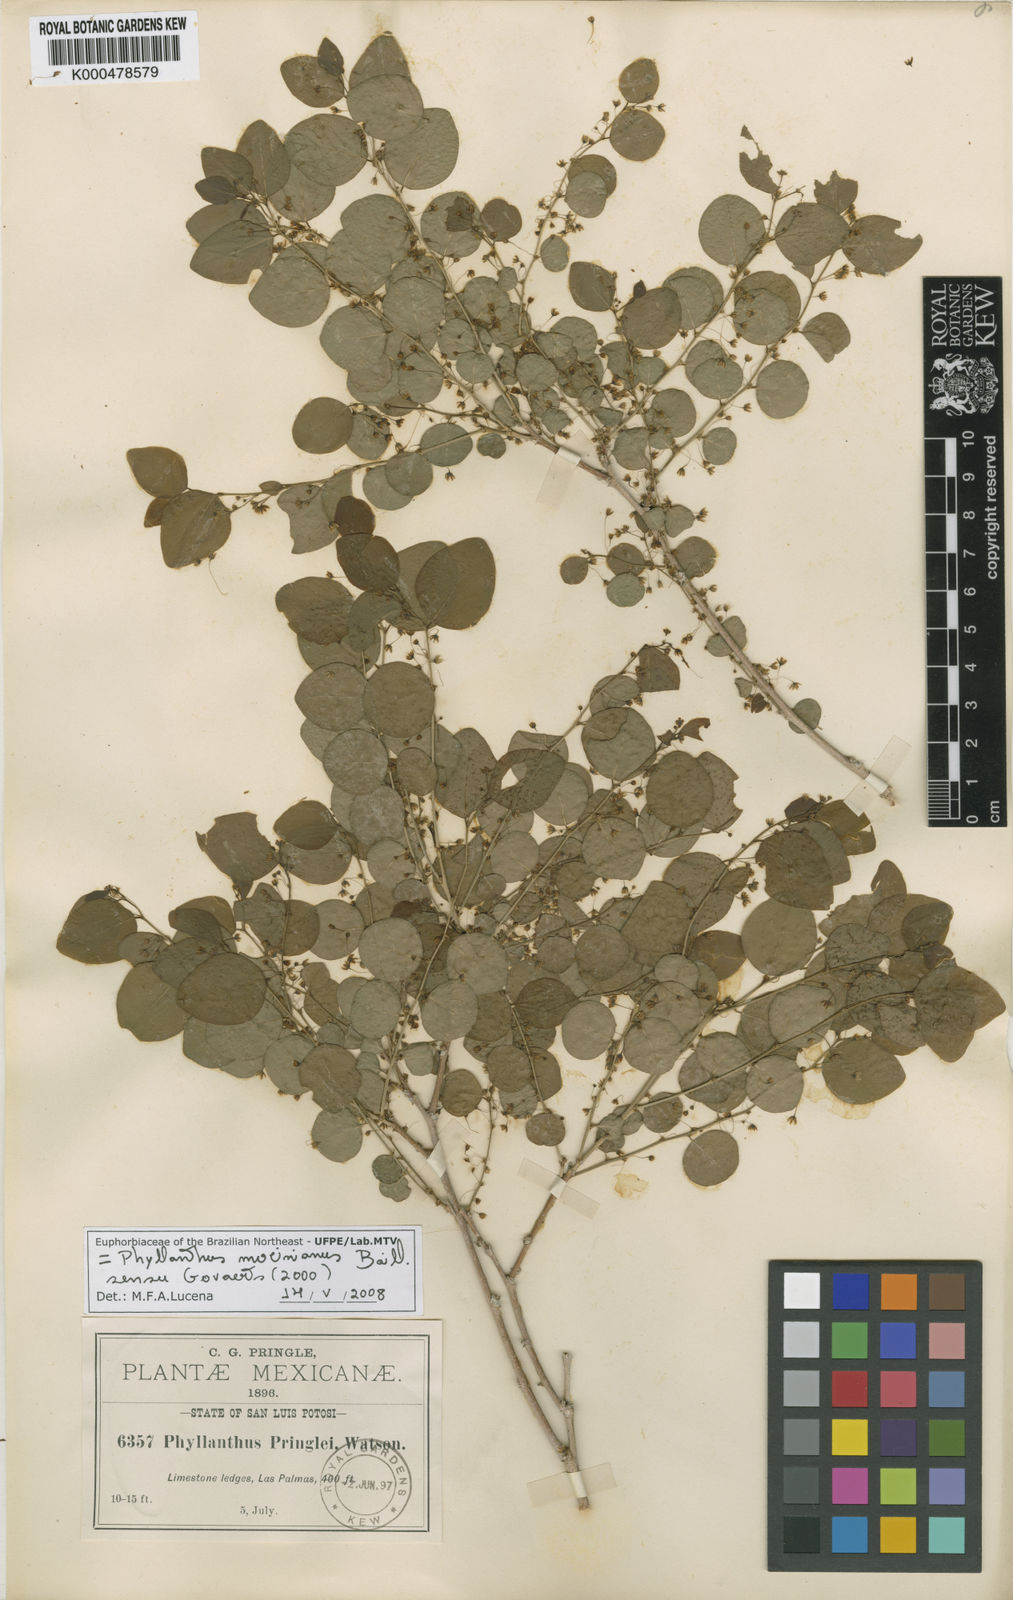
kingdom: Plantae
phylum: Tracheophyta
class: Magnoliopsida
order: Malpighiales
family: Phyllanthaceae
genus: Phyllanthus
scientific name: Phyllanthus
